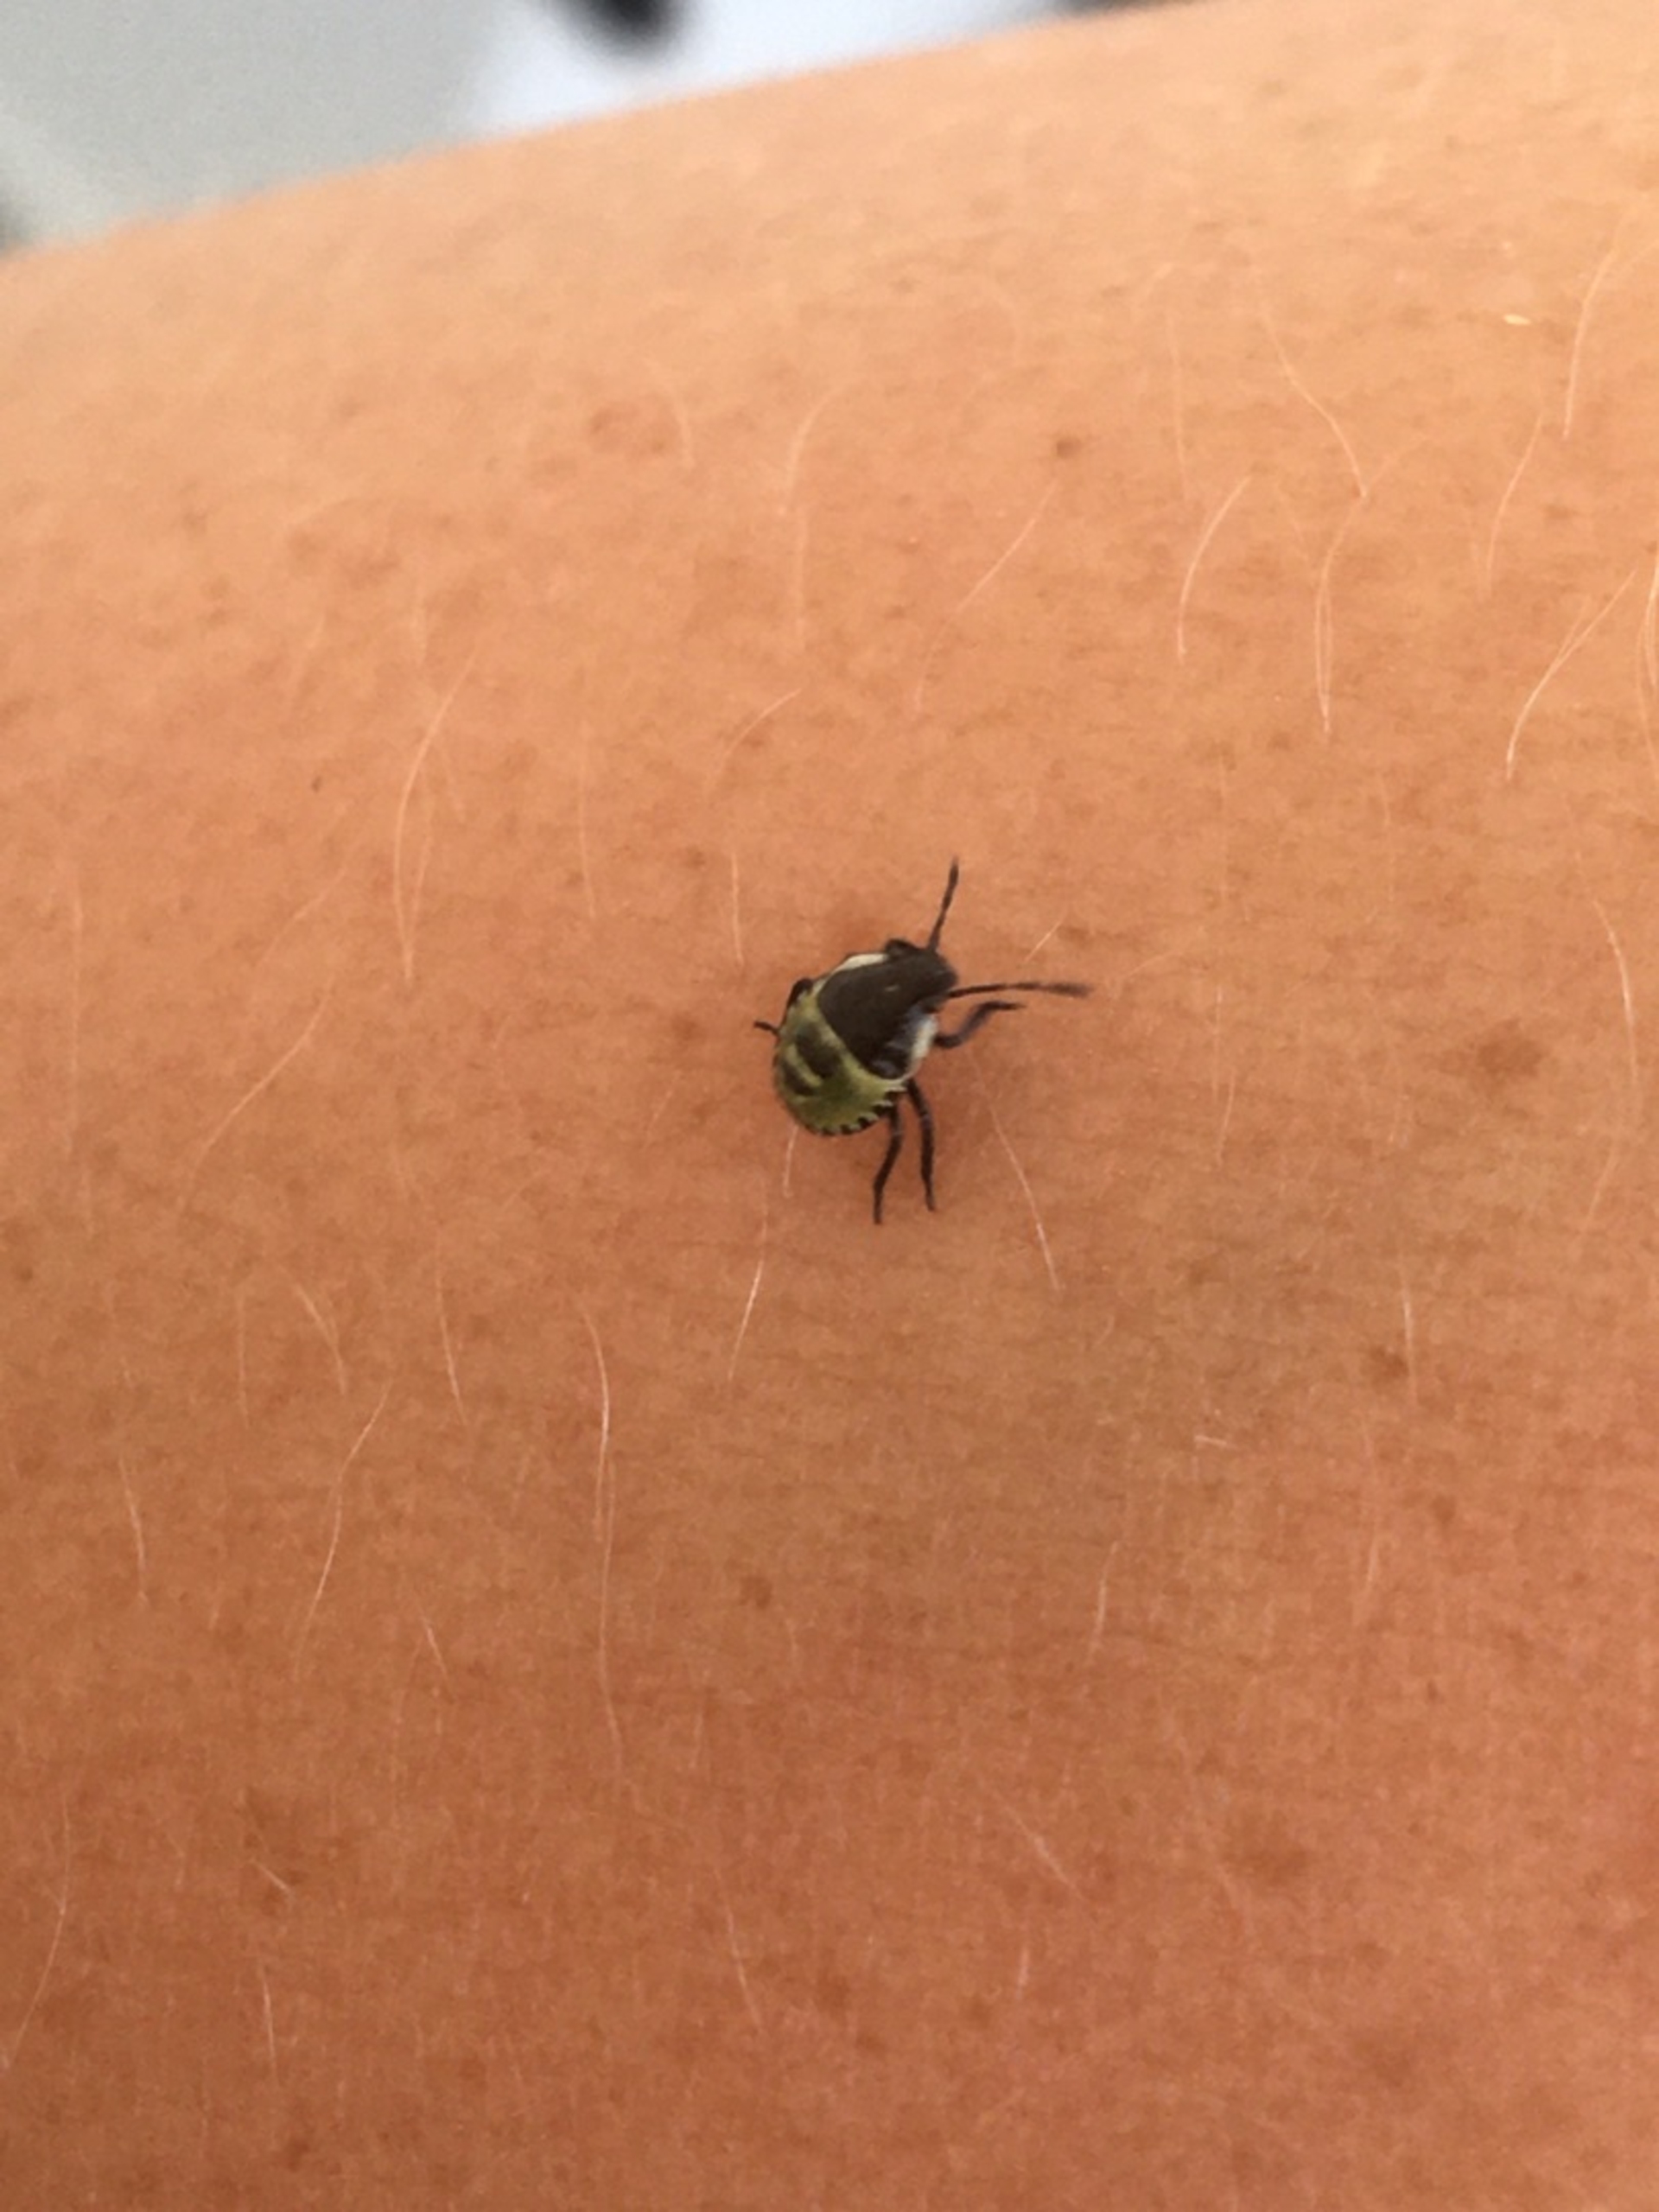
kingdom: Animalia
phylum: Arthropoda
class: Insecta
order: Hemiptera
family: Pentatomidae
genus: Palomena
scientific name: Palomena prasina
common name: Grøn bredtæge
